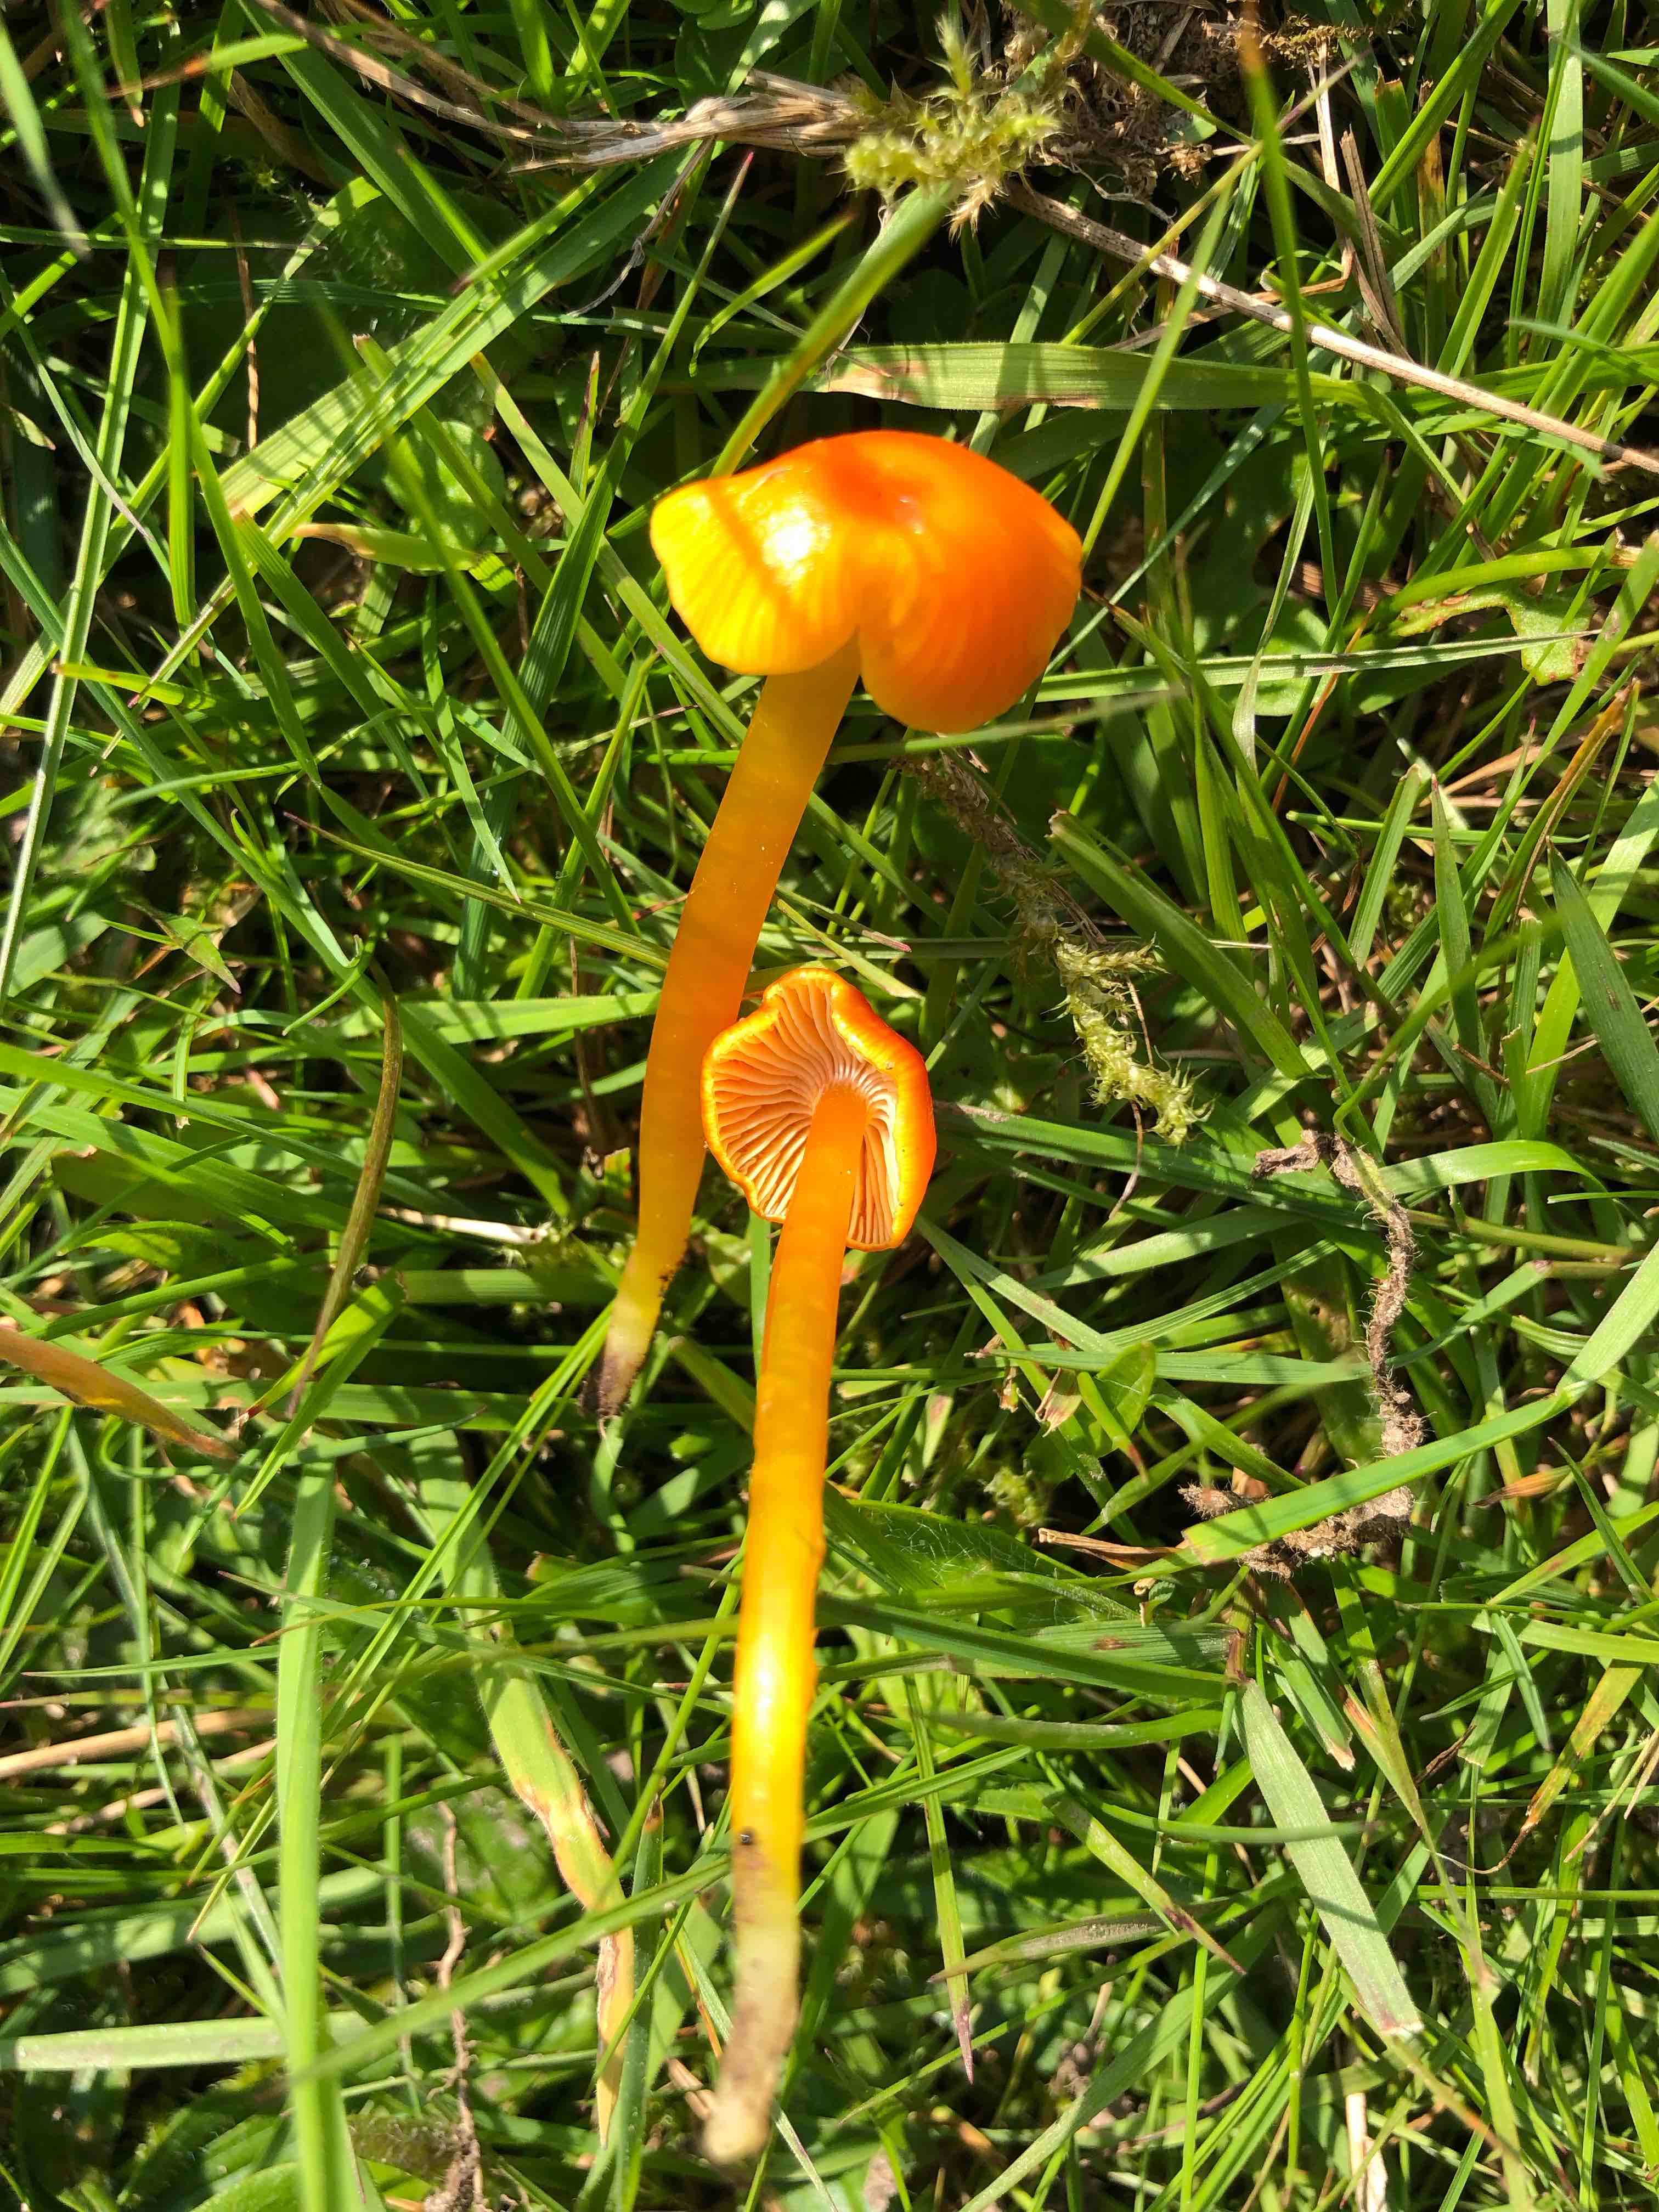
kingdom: Fungi
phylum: Basidiomycota
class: Agaricomycetes
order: Agaricales
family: Hygrophoraceae
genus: Hygrocybe
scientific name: Hygrocybe ceracea
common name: voksgul vokshat
